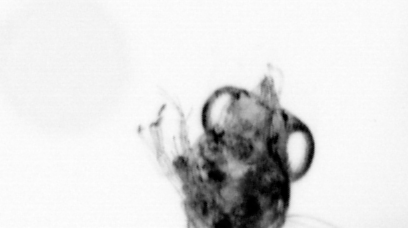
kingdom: Animalia
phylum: Arthropoda
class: Copepoda
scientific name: Copepoda
